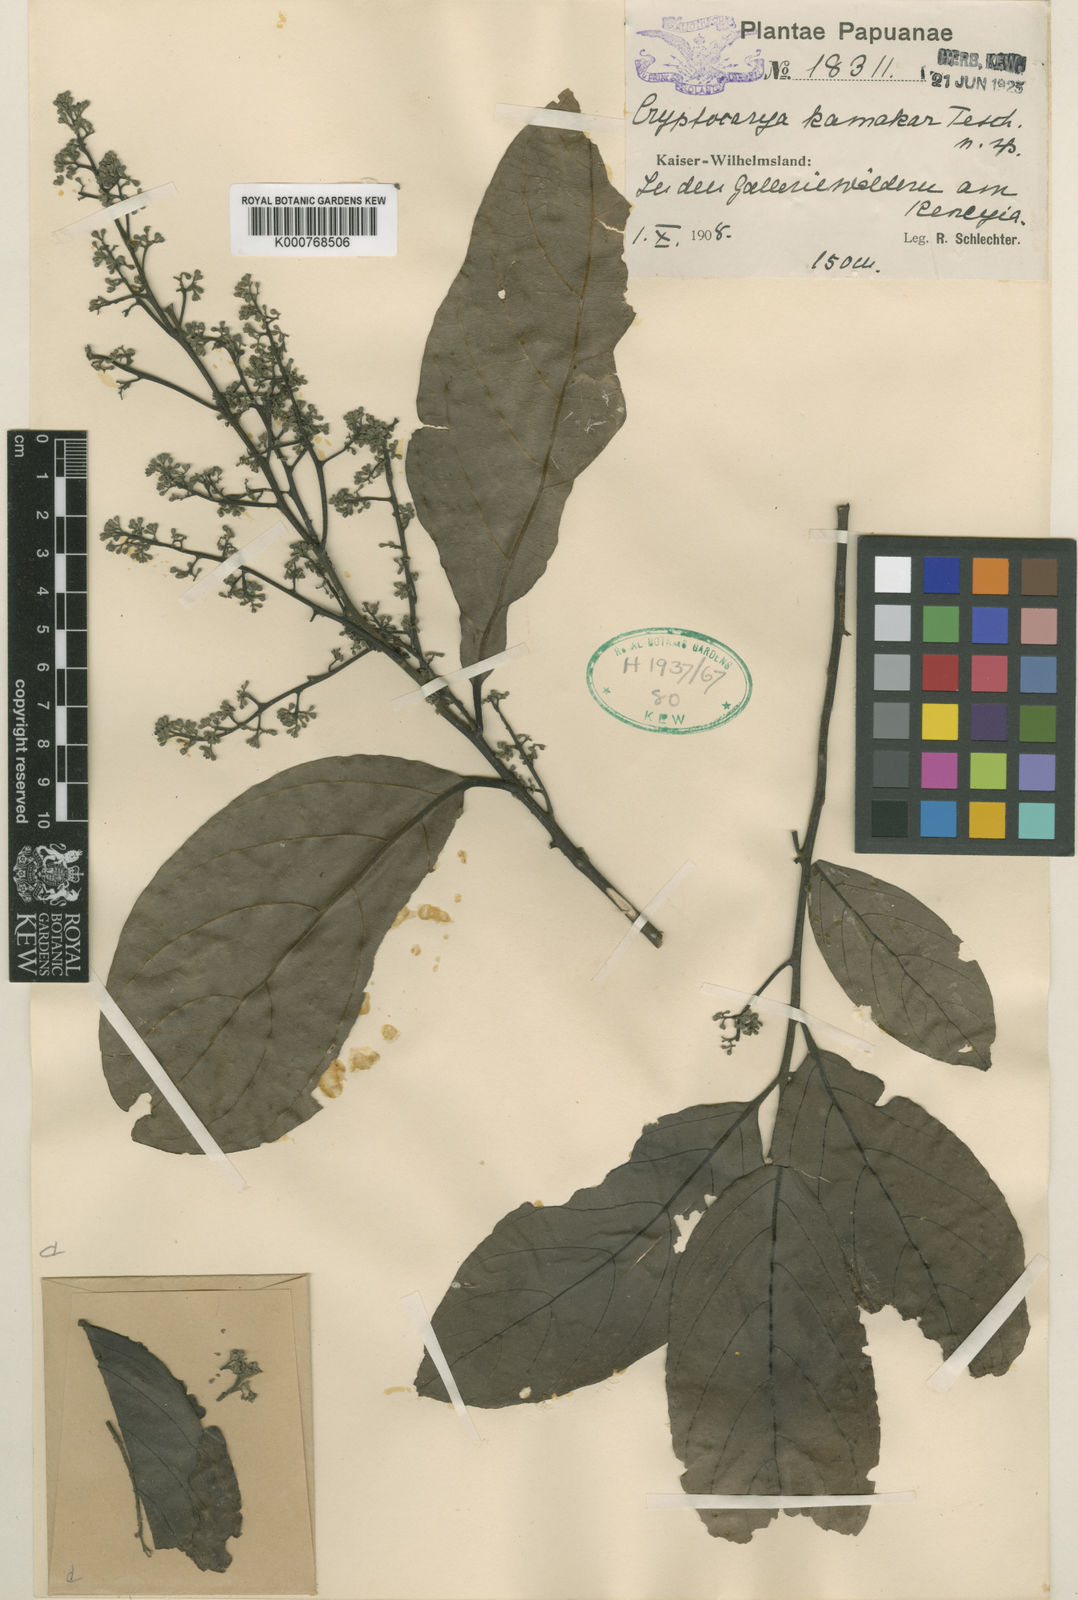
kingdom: Plantae
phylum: Tracheophyta
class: Magnoliopsida
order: Laurales
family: Lauraceae
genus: Cryptocarya
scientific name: Cryptocarya kamahar
